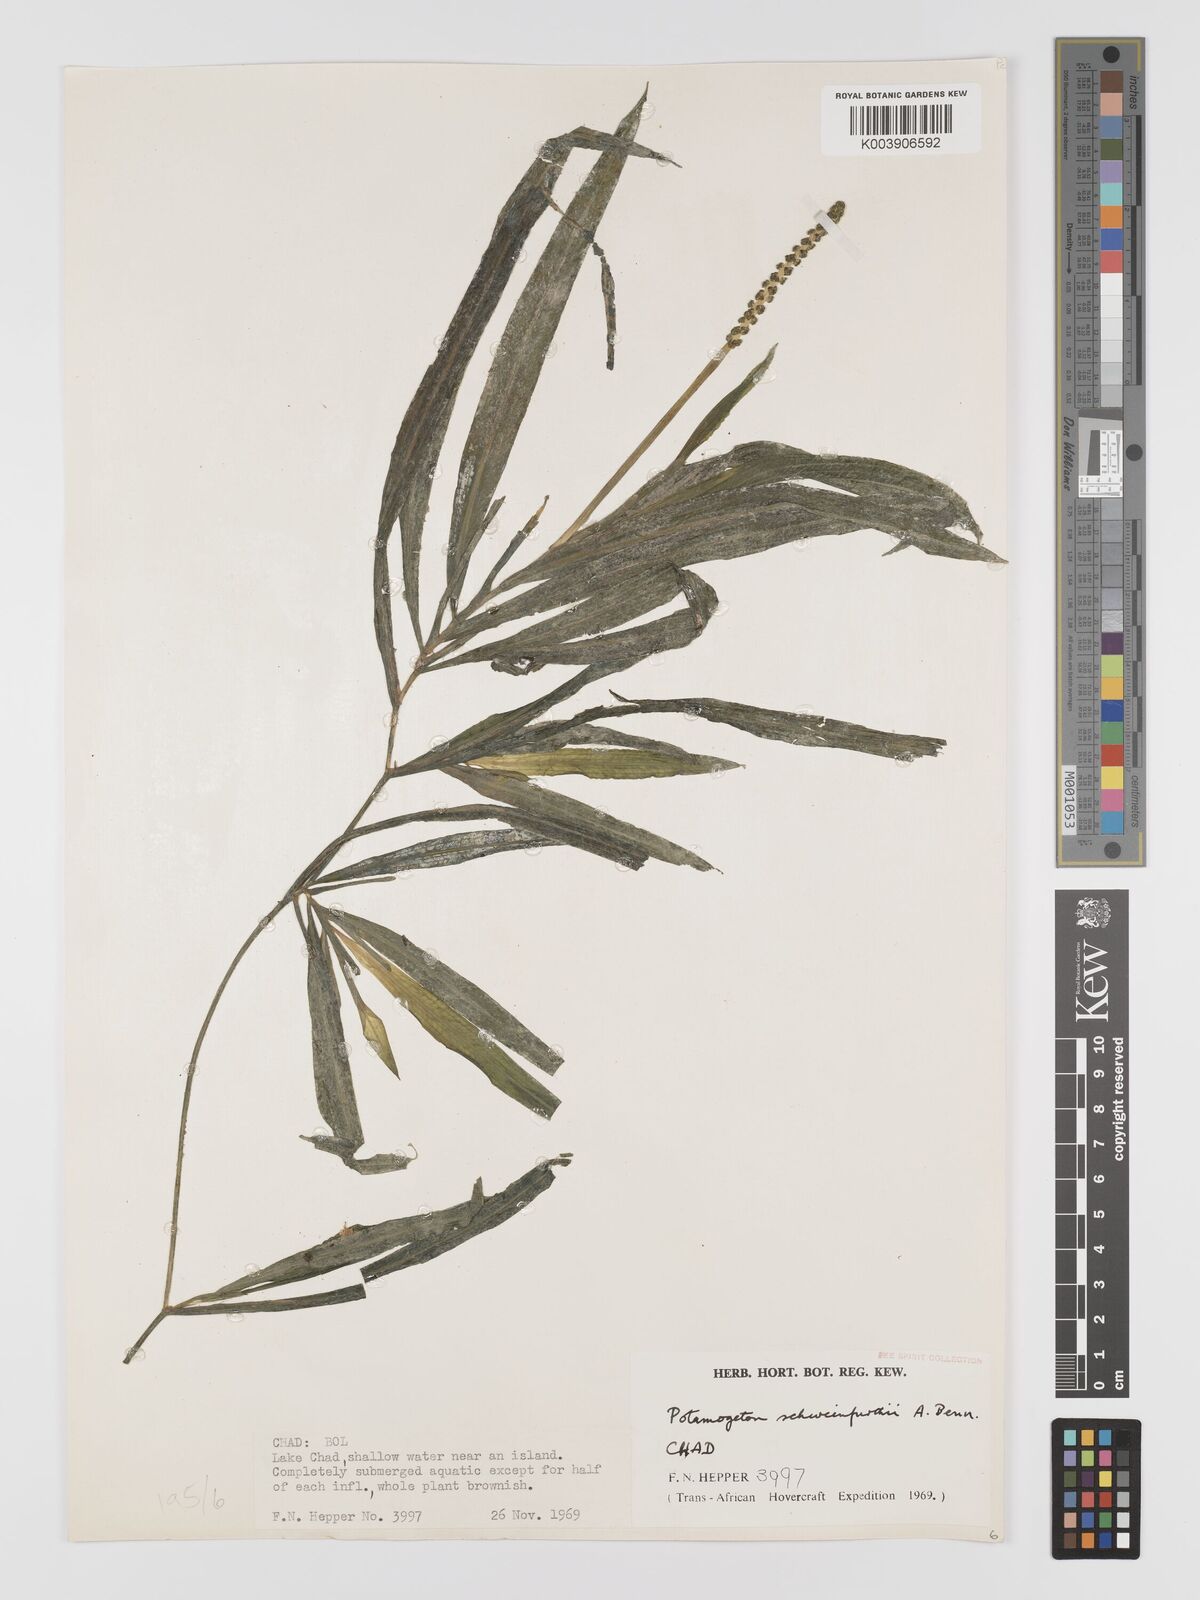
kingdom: Plantae
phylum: Tracheophyta
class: Liliopsida
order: Alismatales
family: Potamogetonaceae
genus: Potamogeton
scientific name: Potamogeton schweinfurthii
